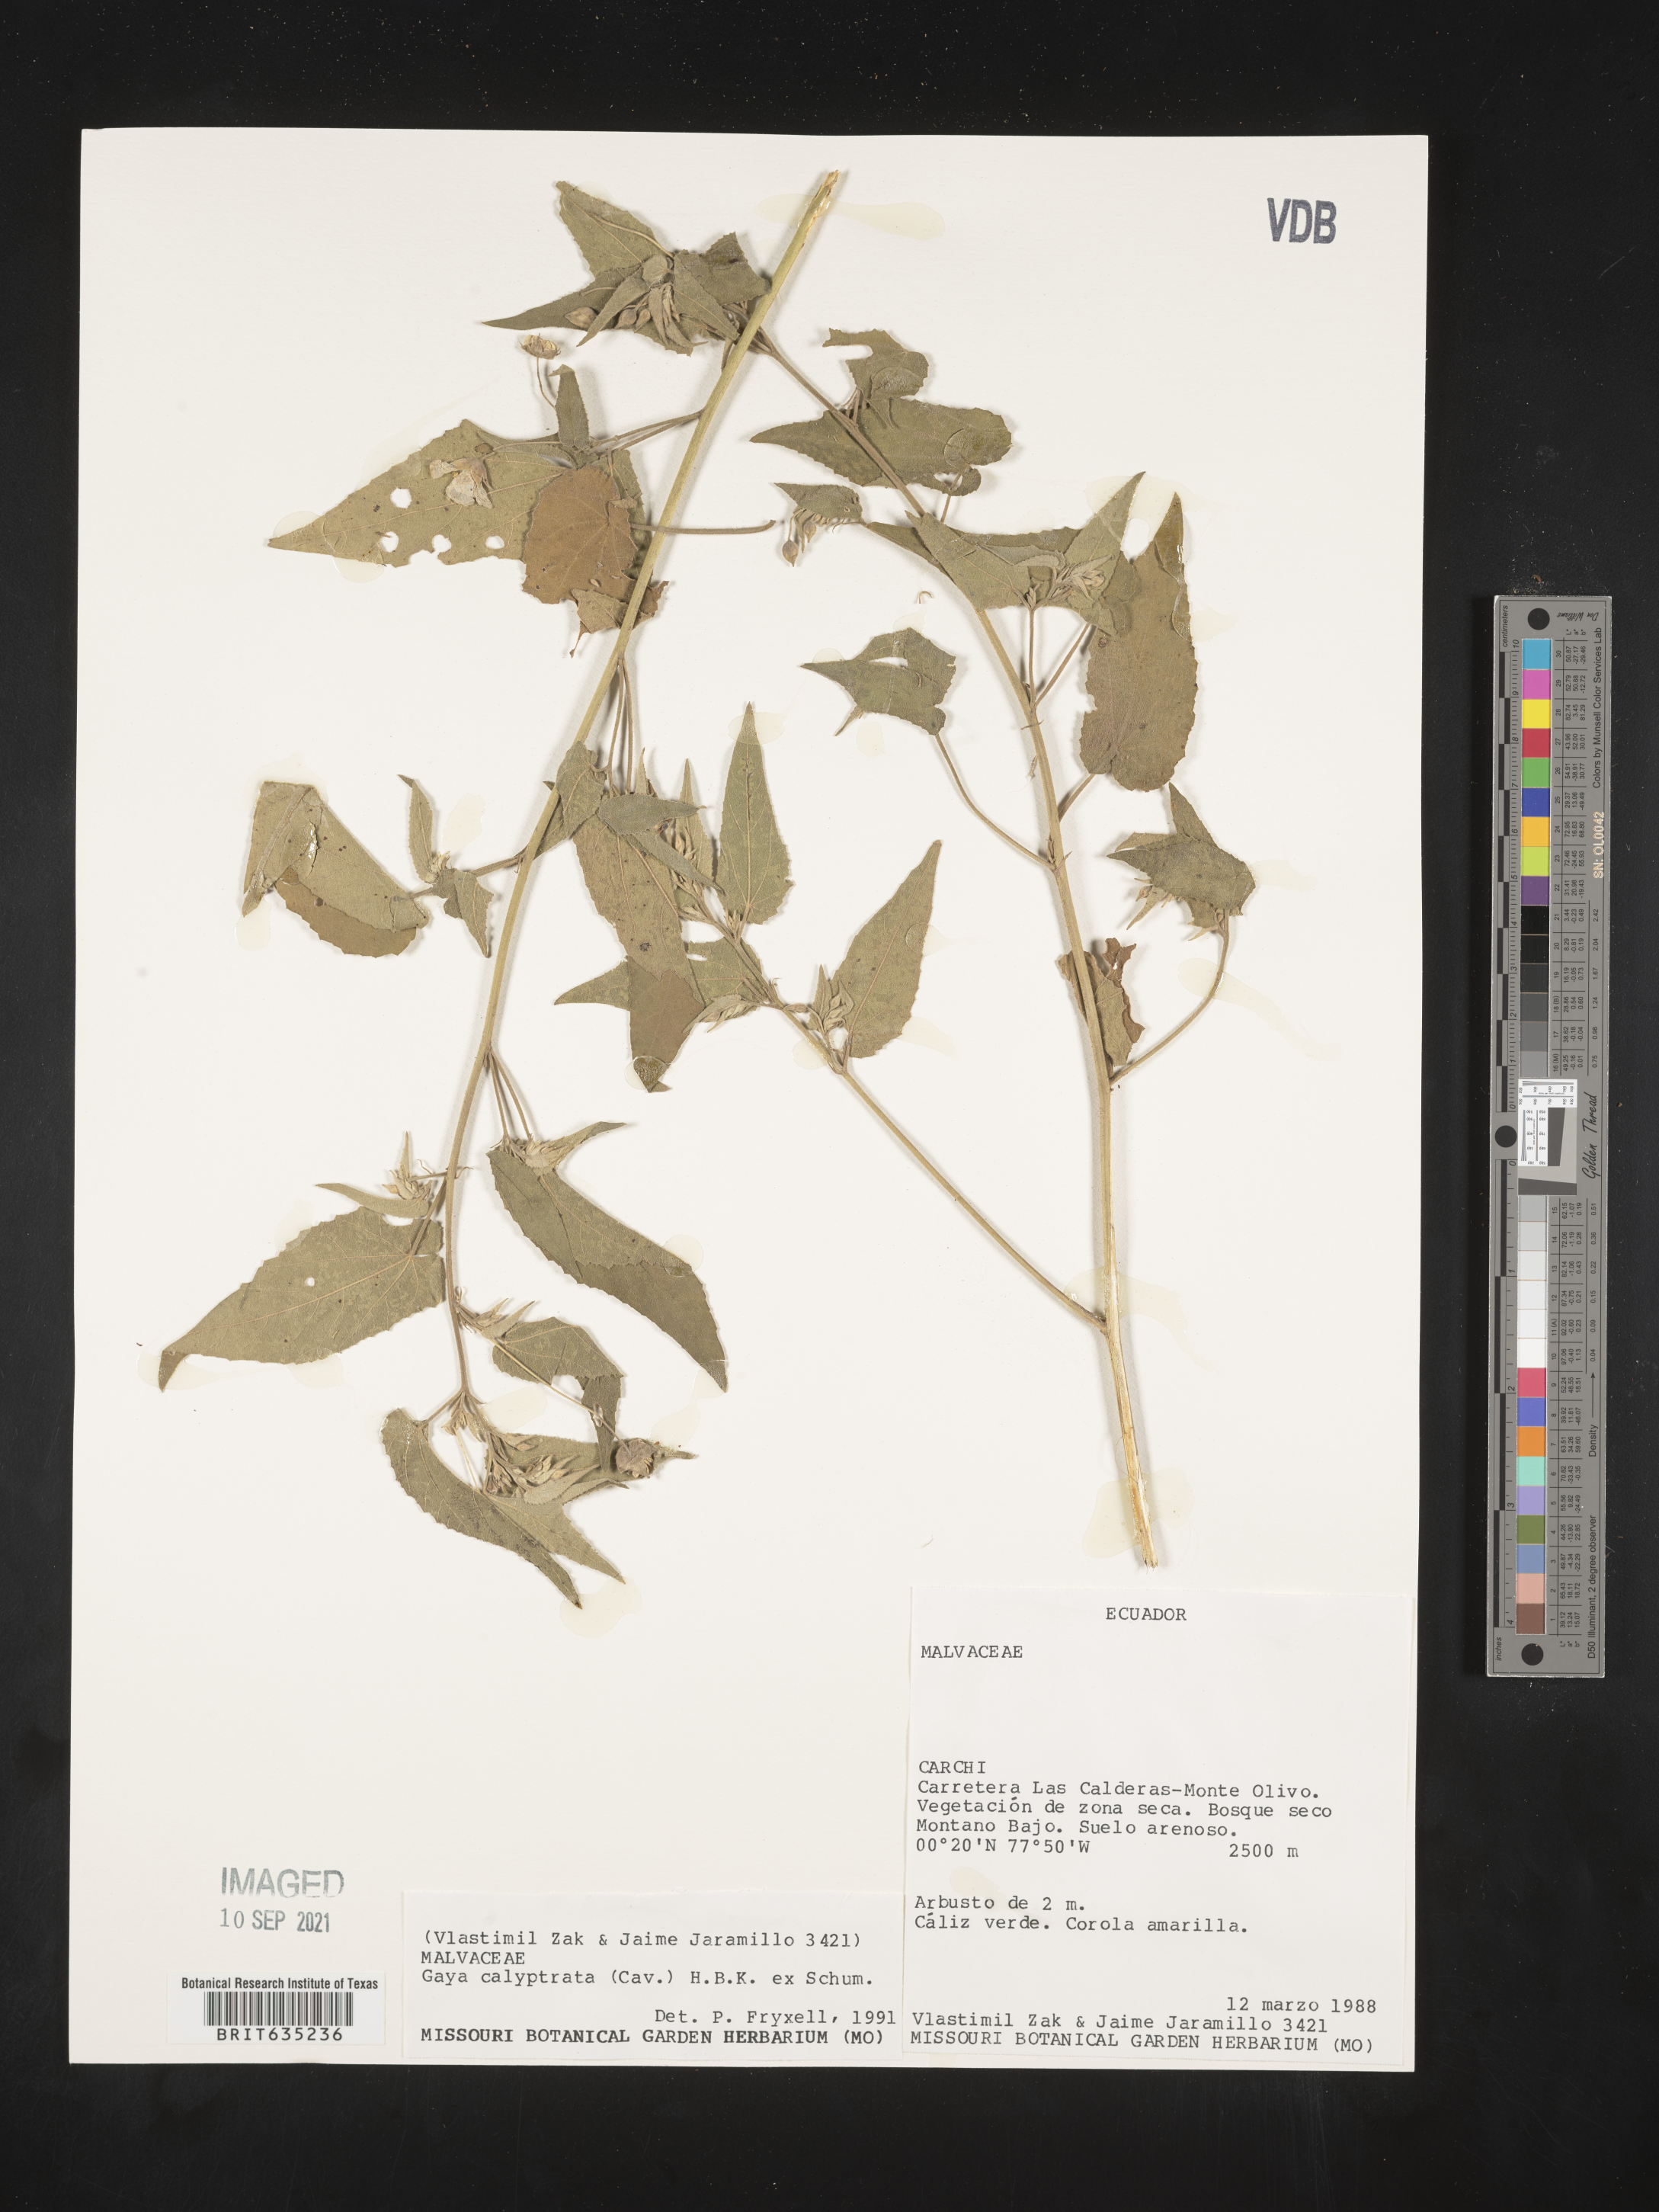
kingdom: Plantae
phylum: Tracheophyta
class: Magnoliopsida
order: Malvales
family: Malvaceae
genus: Gaya
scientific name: Gaya
